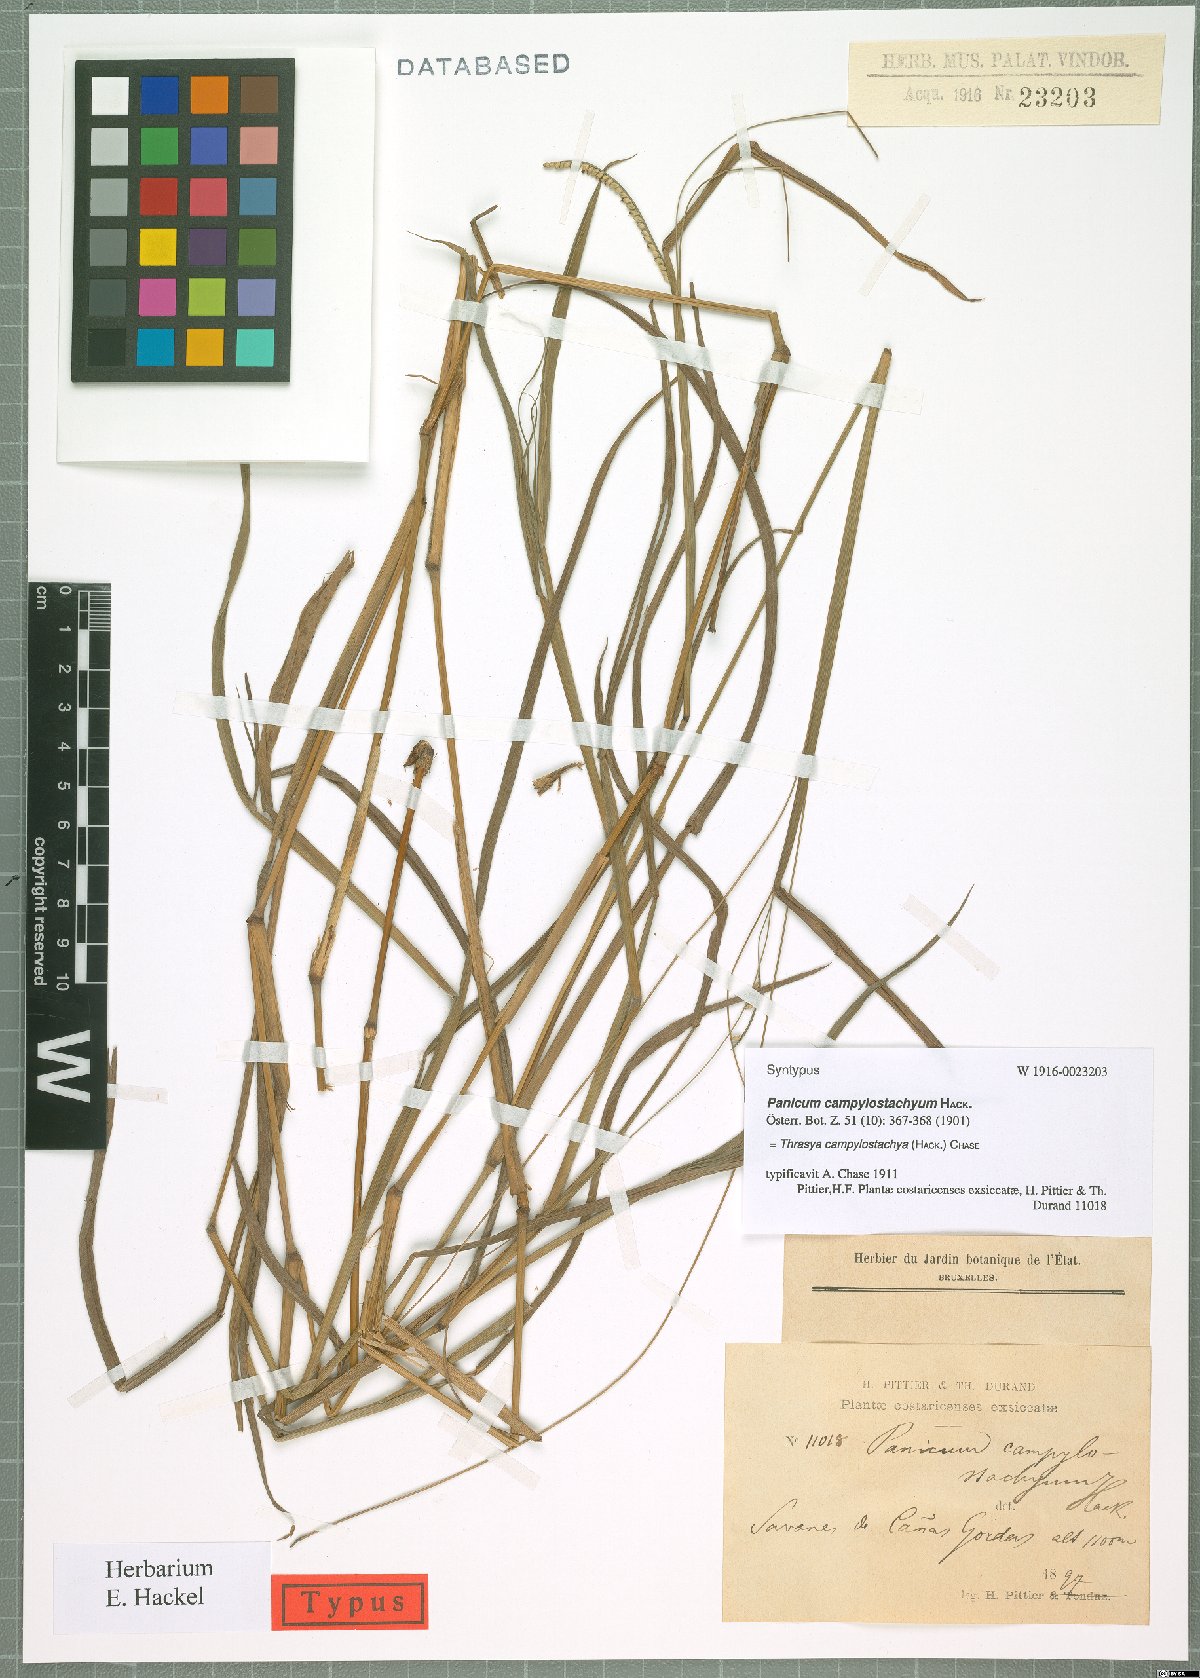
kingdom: Plantae
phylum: Tracheophyta
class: Liliopsida
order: Poales
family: Poaceae
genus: Paspalum
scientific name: Paspalum campylostachyum
